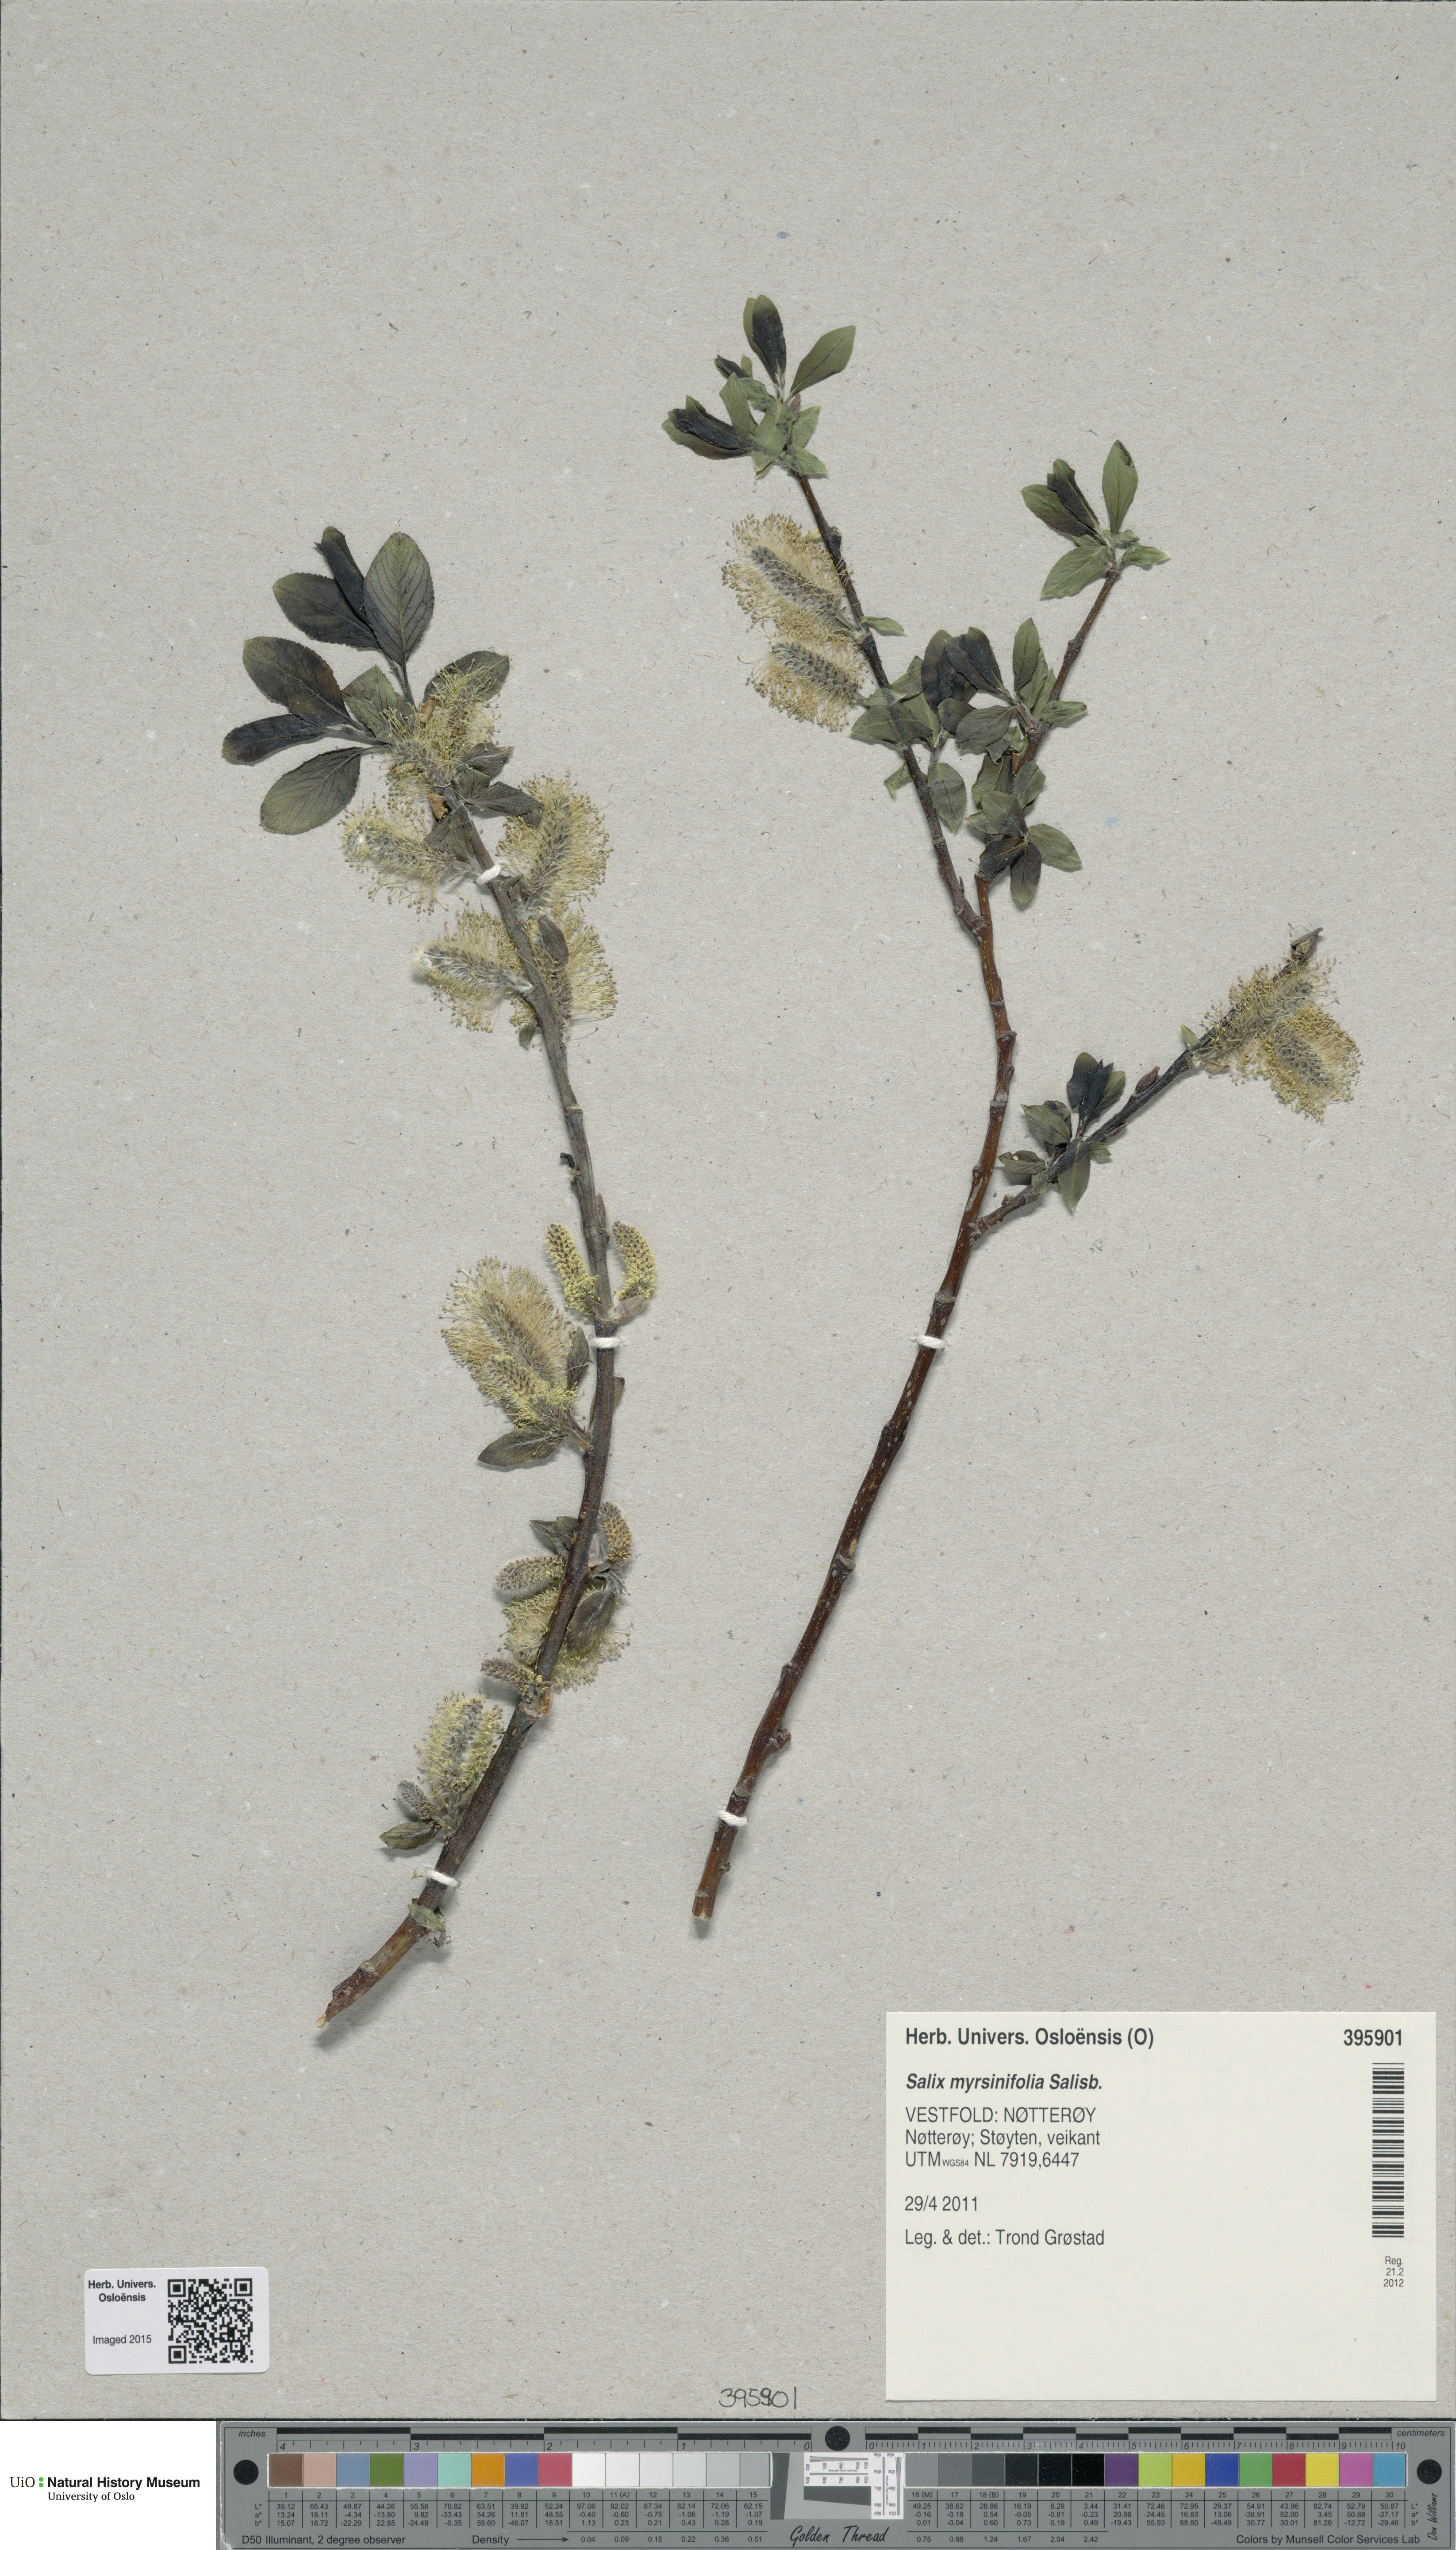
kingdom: Plantae
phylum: Tracheophyta
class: Magnoliopsida
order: Malpighiales
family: Salicaceae
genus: Salix
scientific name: Salix myrsinifolia
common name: Dark-leaved willow
